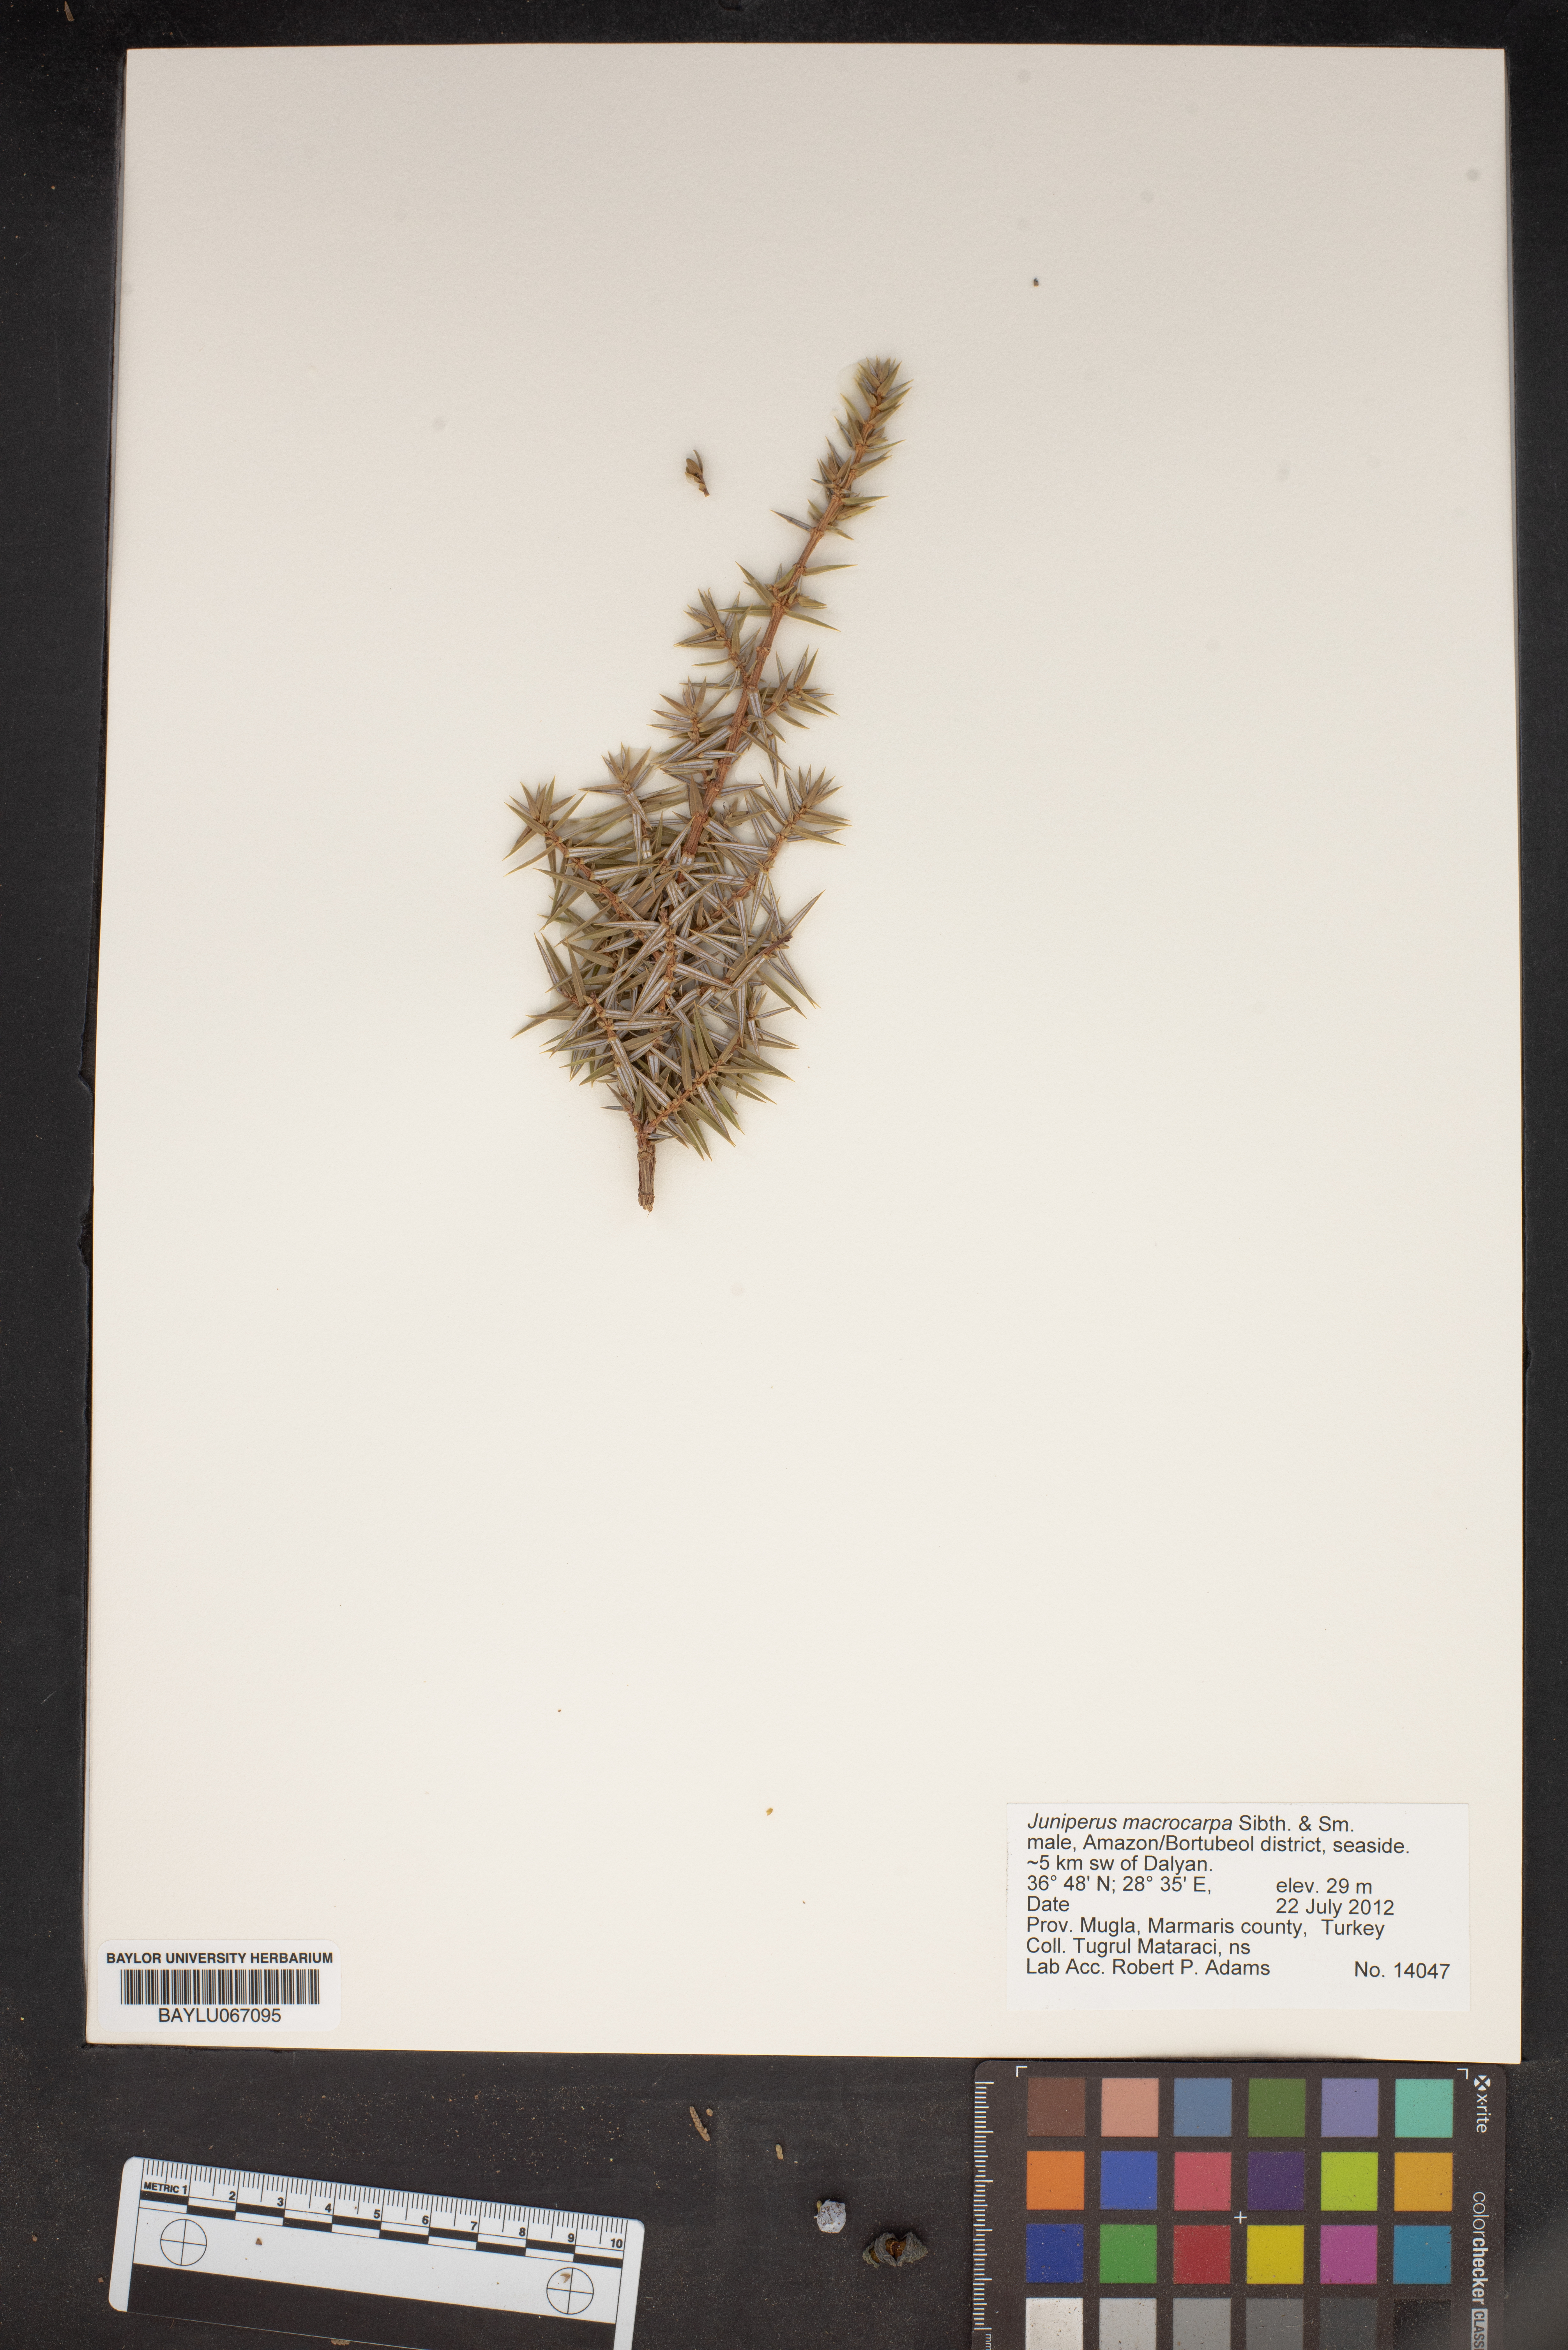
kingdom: Plantae
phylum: Tracheophyta
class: Pinopsida
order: Pinales
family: Cupressaceae
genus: Juniperus
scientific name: Juniperus oxycedrus
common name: Prickly juniper
